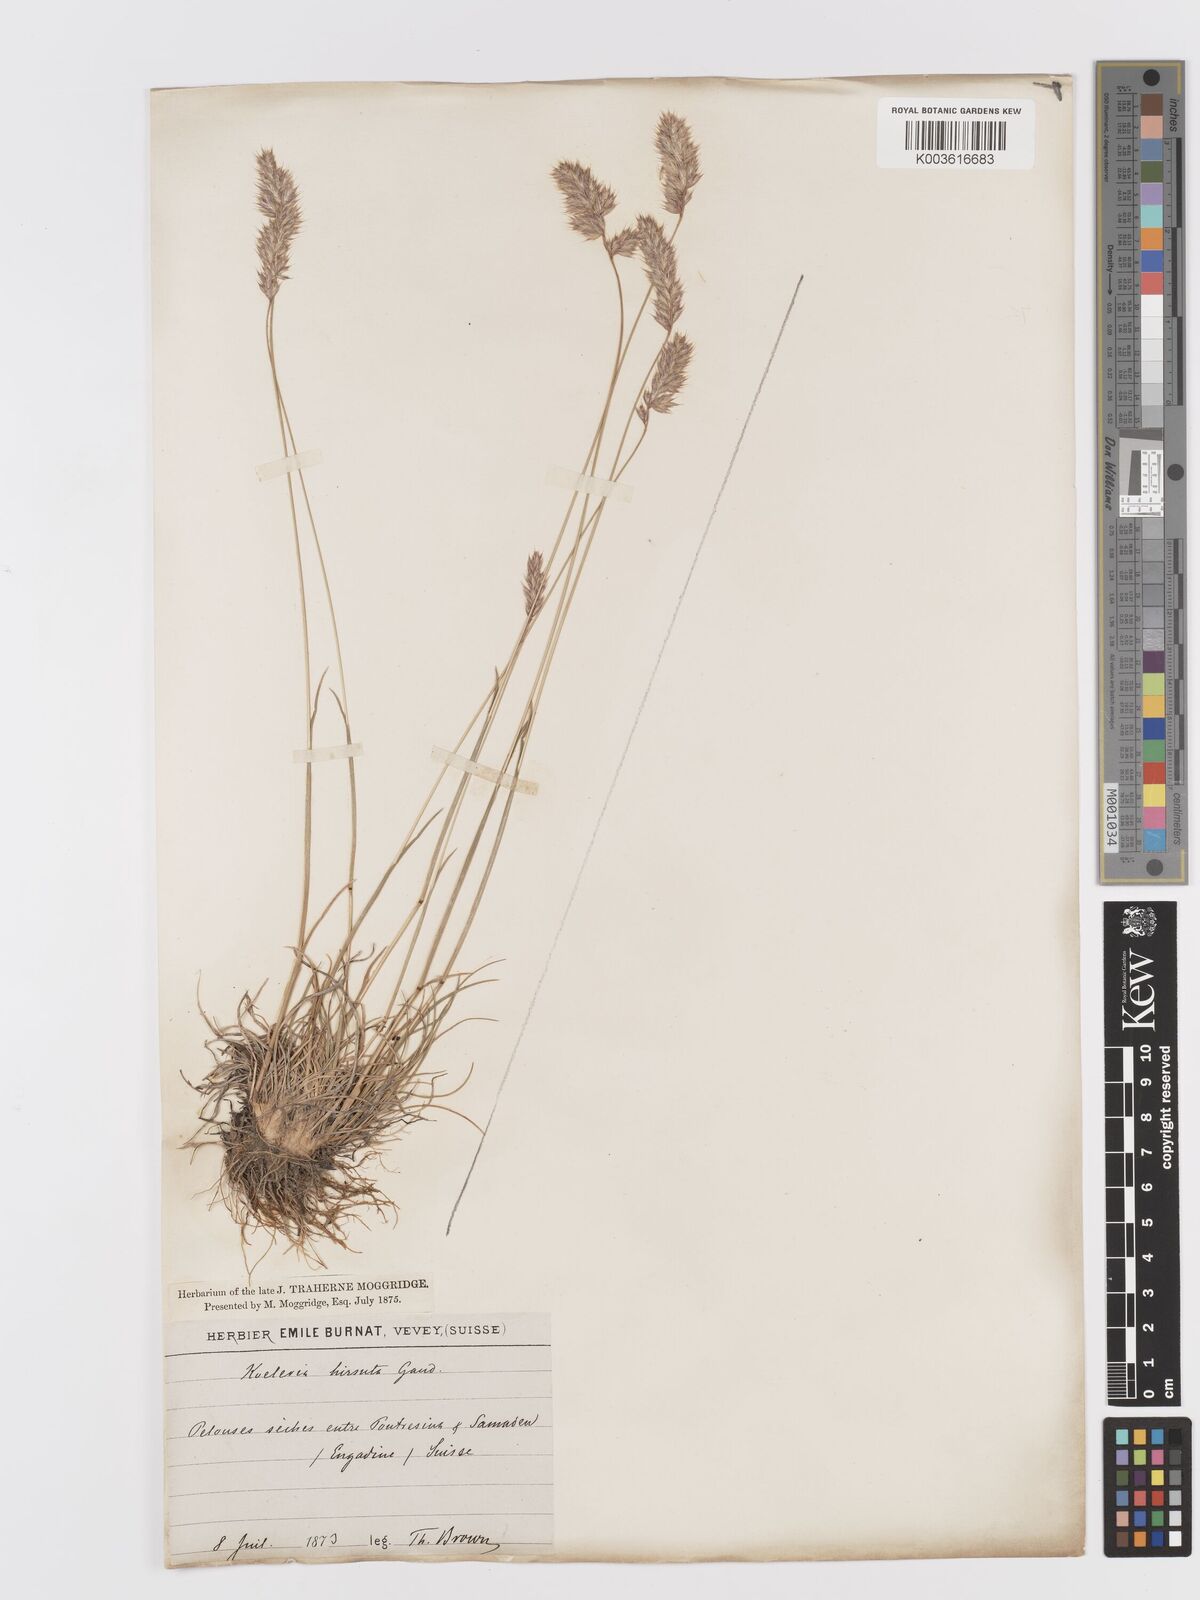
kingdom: Plantae
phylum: Tracheophyta
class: Liliopsida
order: Poales
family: Poaceae
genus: Koeleria
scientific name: Koeleria hirsuta
